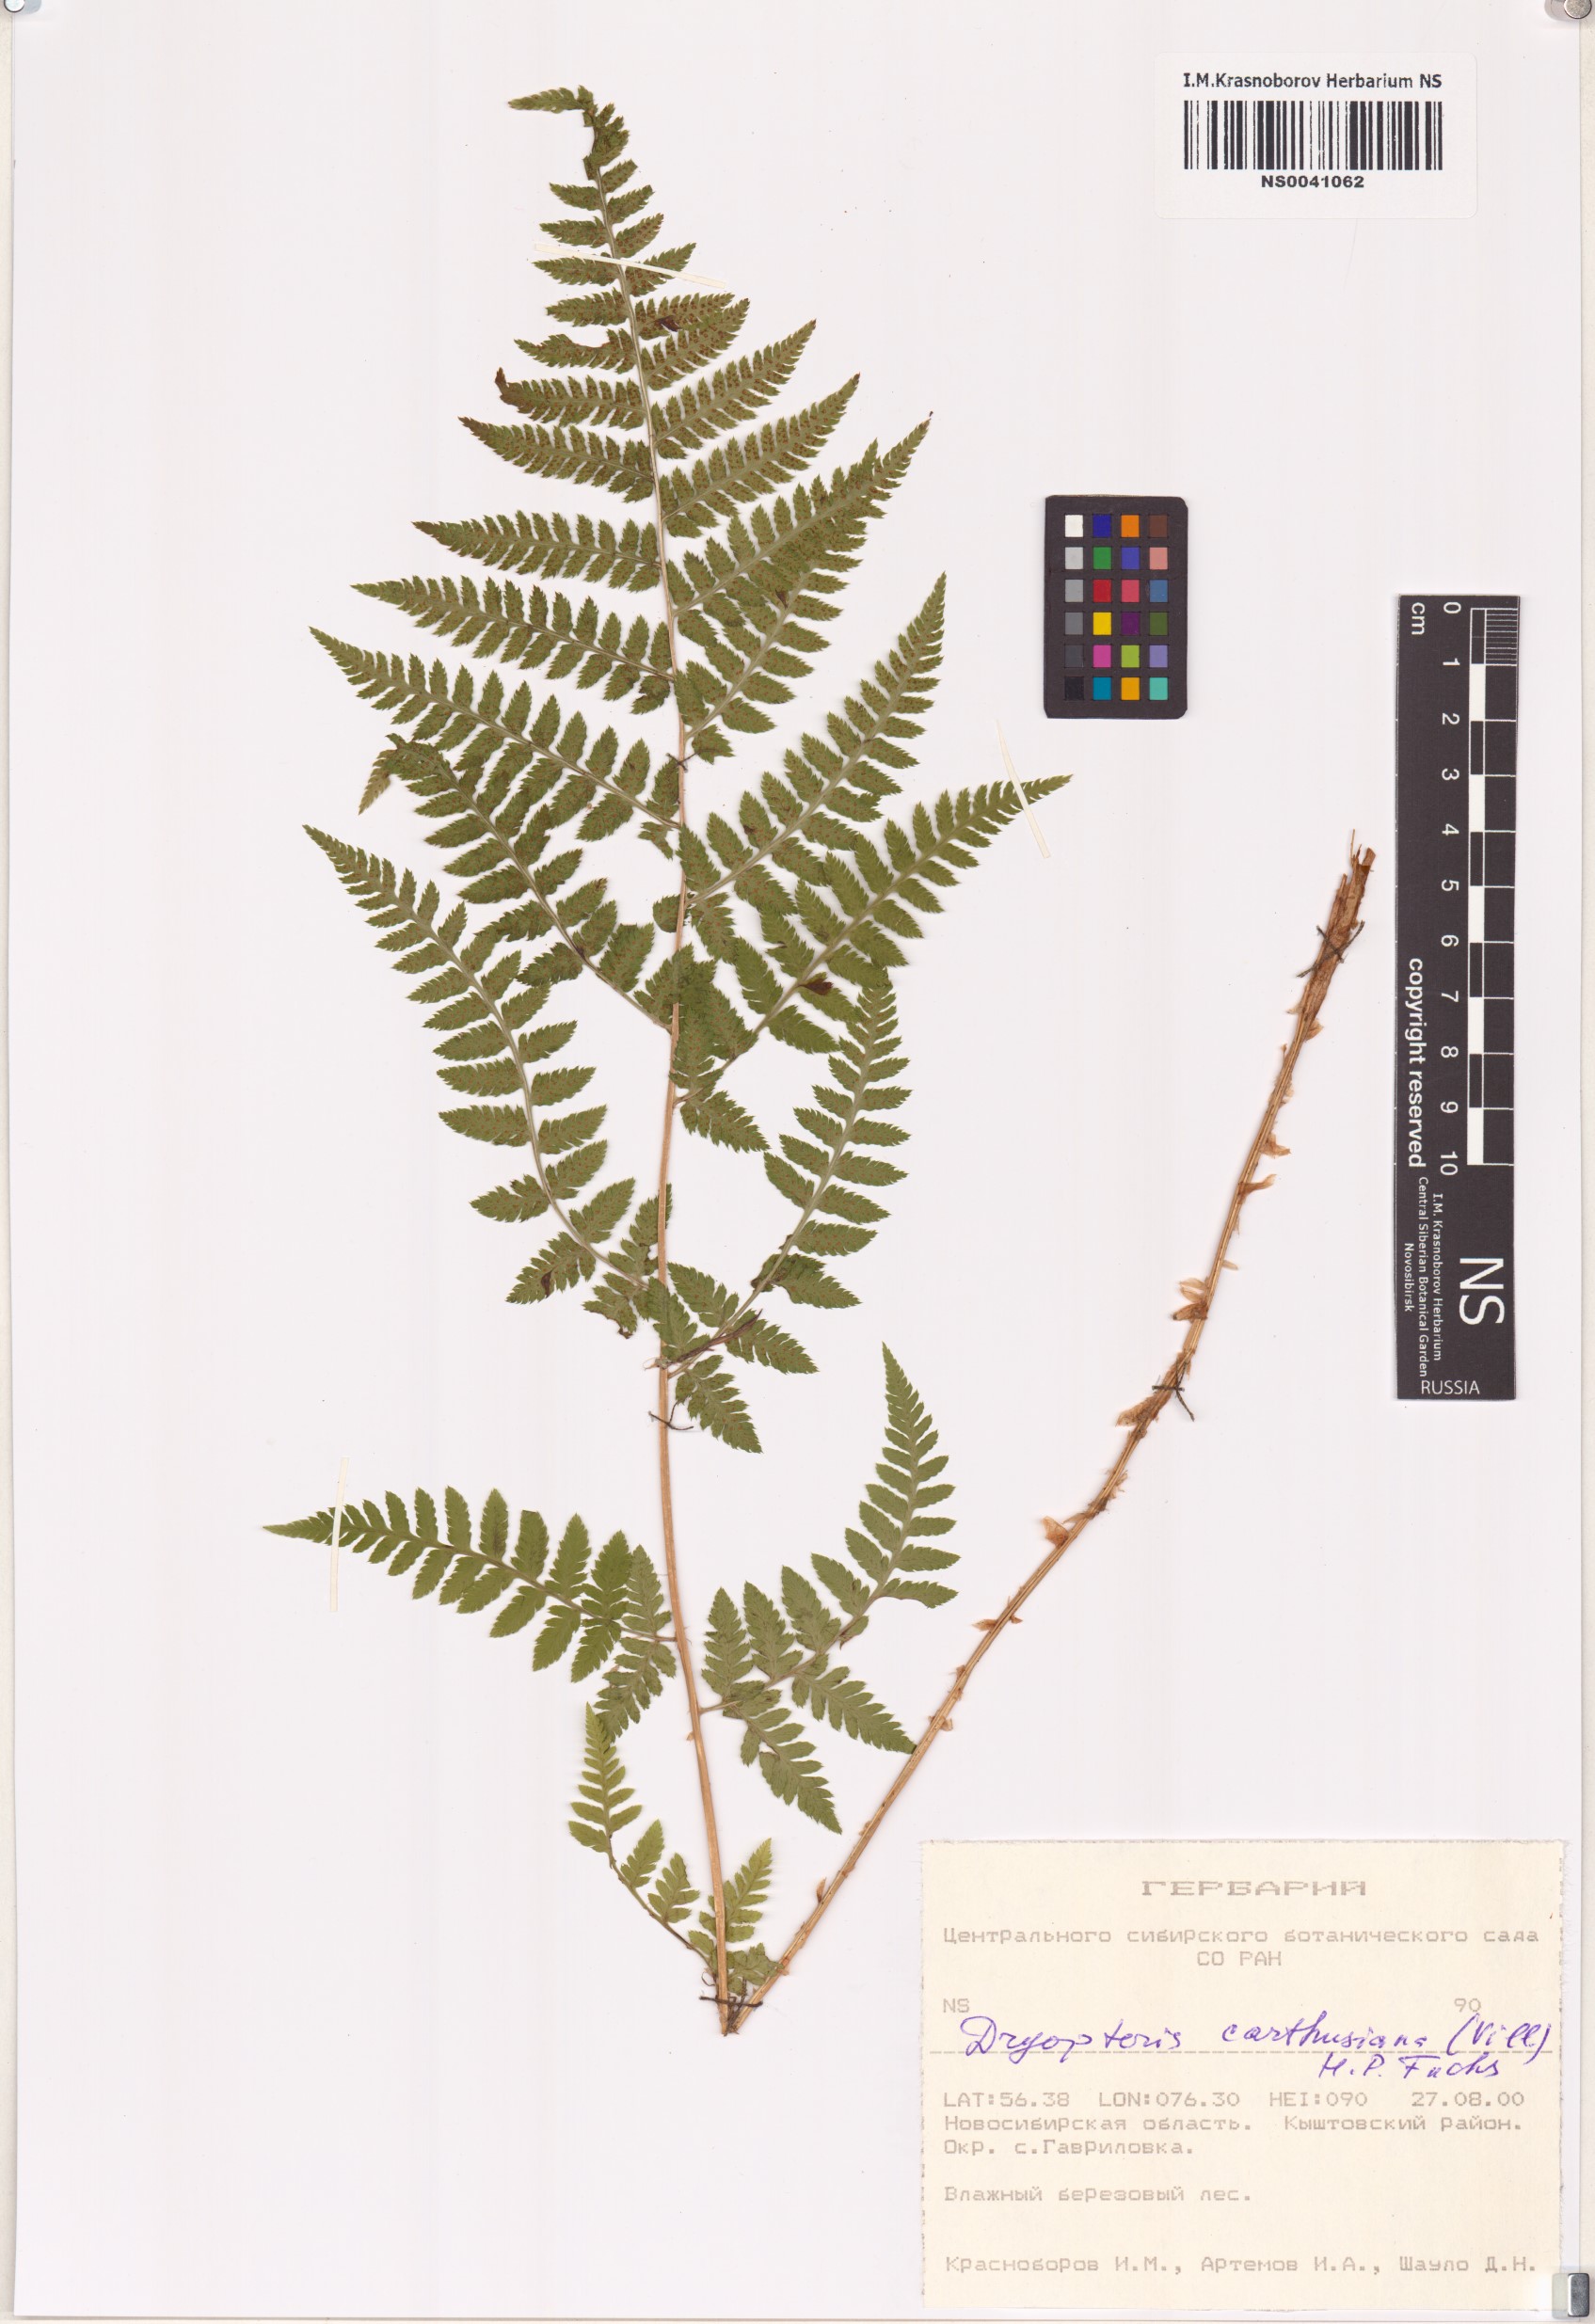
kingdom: Plantae
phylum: Tracheophyta
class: Polypodiopsida
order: Polypodiales
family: Dryopteridaceae
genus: Dryopteris
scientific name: Dryopteris carthusiana
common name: Narrow buckler-fern
